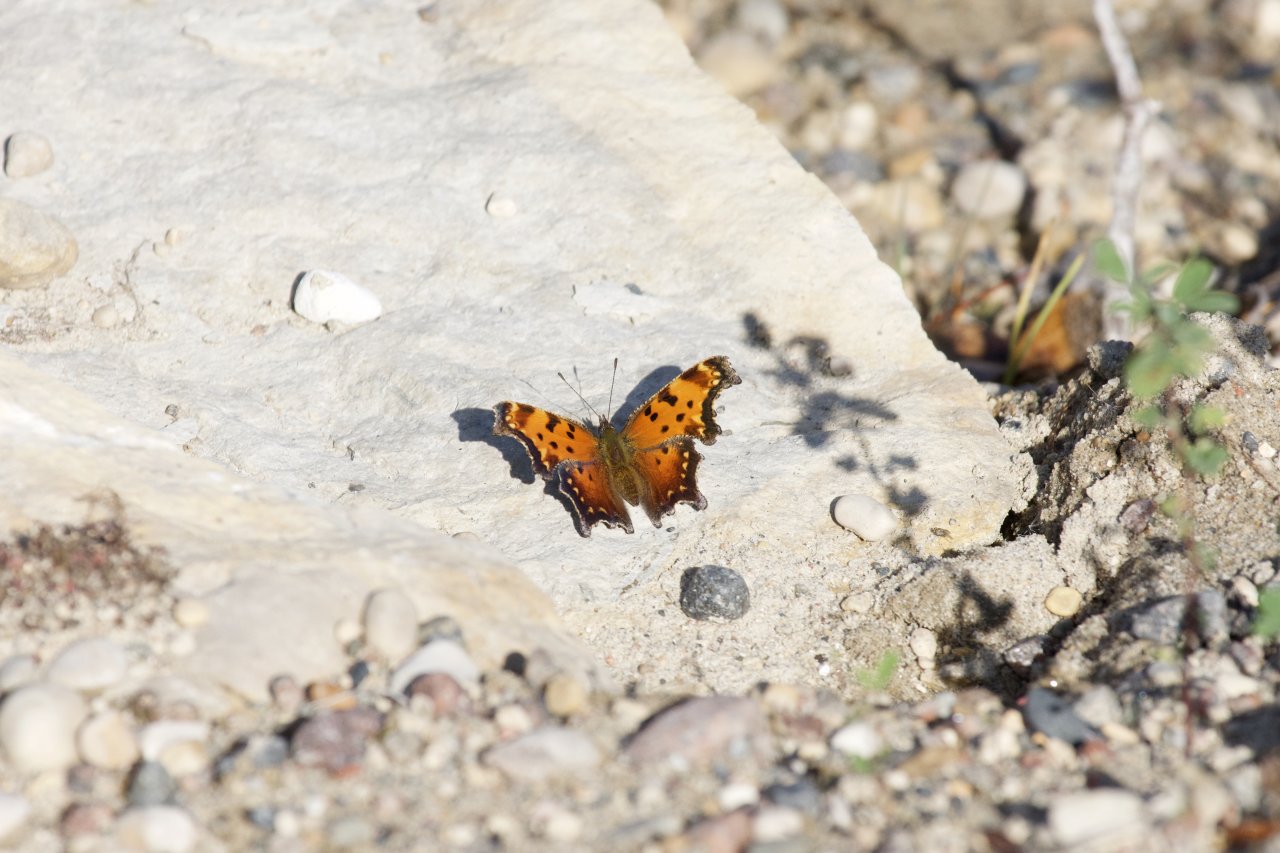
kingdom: Animalia
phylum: Arthropoda
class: Insecta
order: Lepidoptera
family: Nymphalidae
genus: Polygonia
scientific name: Polygonia progne
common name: Gray Comma
